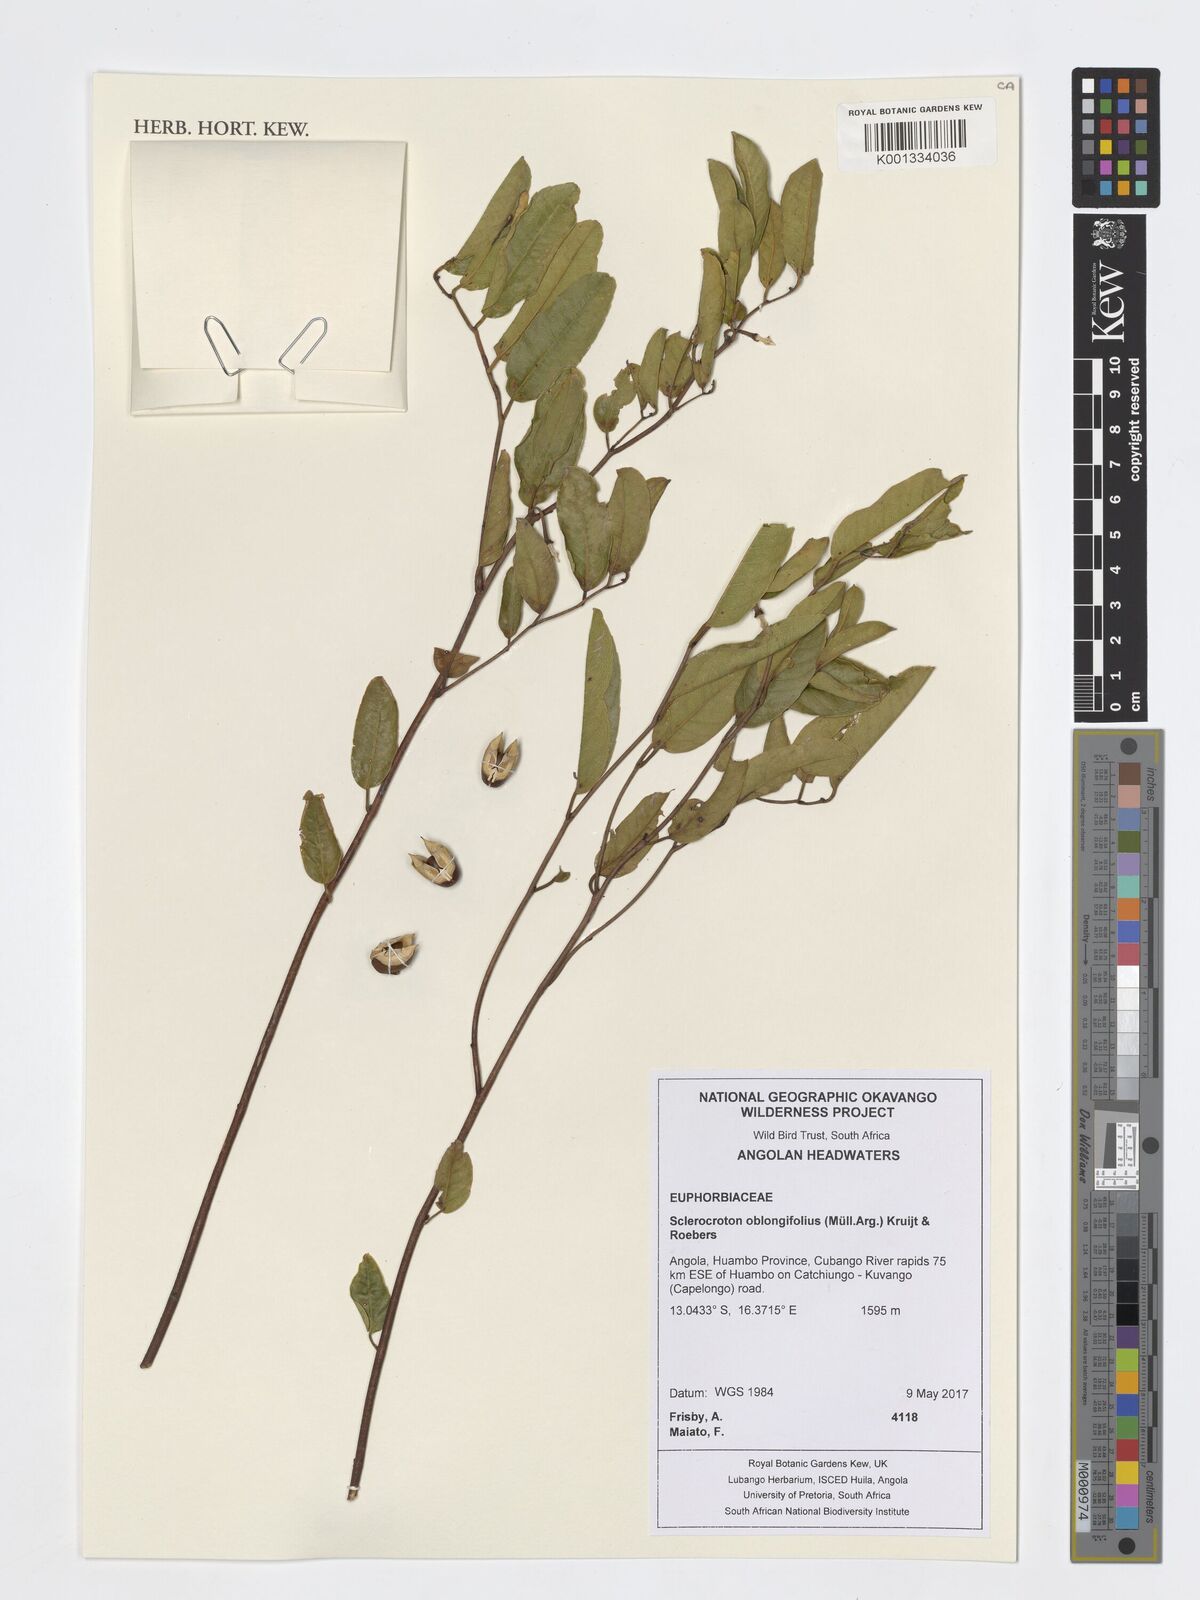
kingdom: Plantae
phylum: Tracheophyta
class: Magnoliopsida
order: Malpighiales
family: Euphorbiaceae
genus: Sclerocroton
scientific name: Sclerocroton oblongifolius
